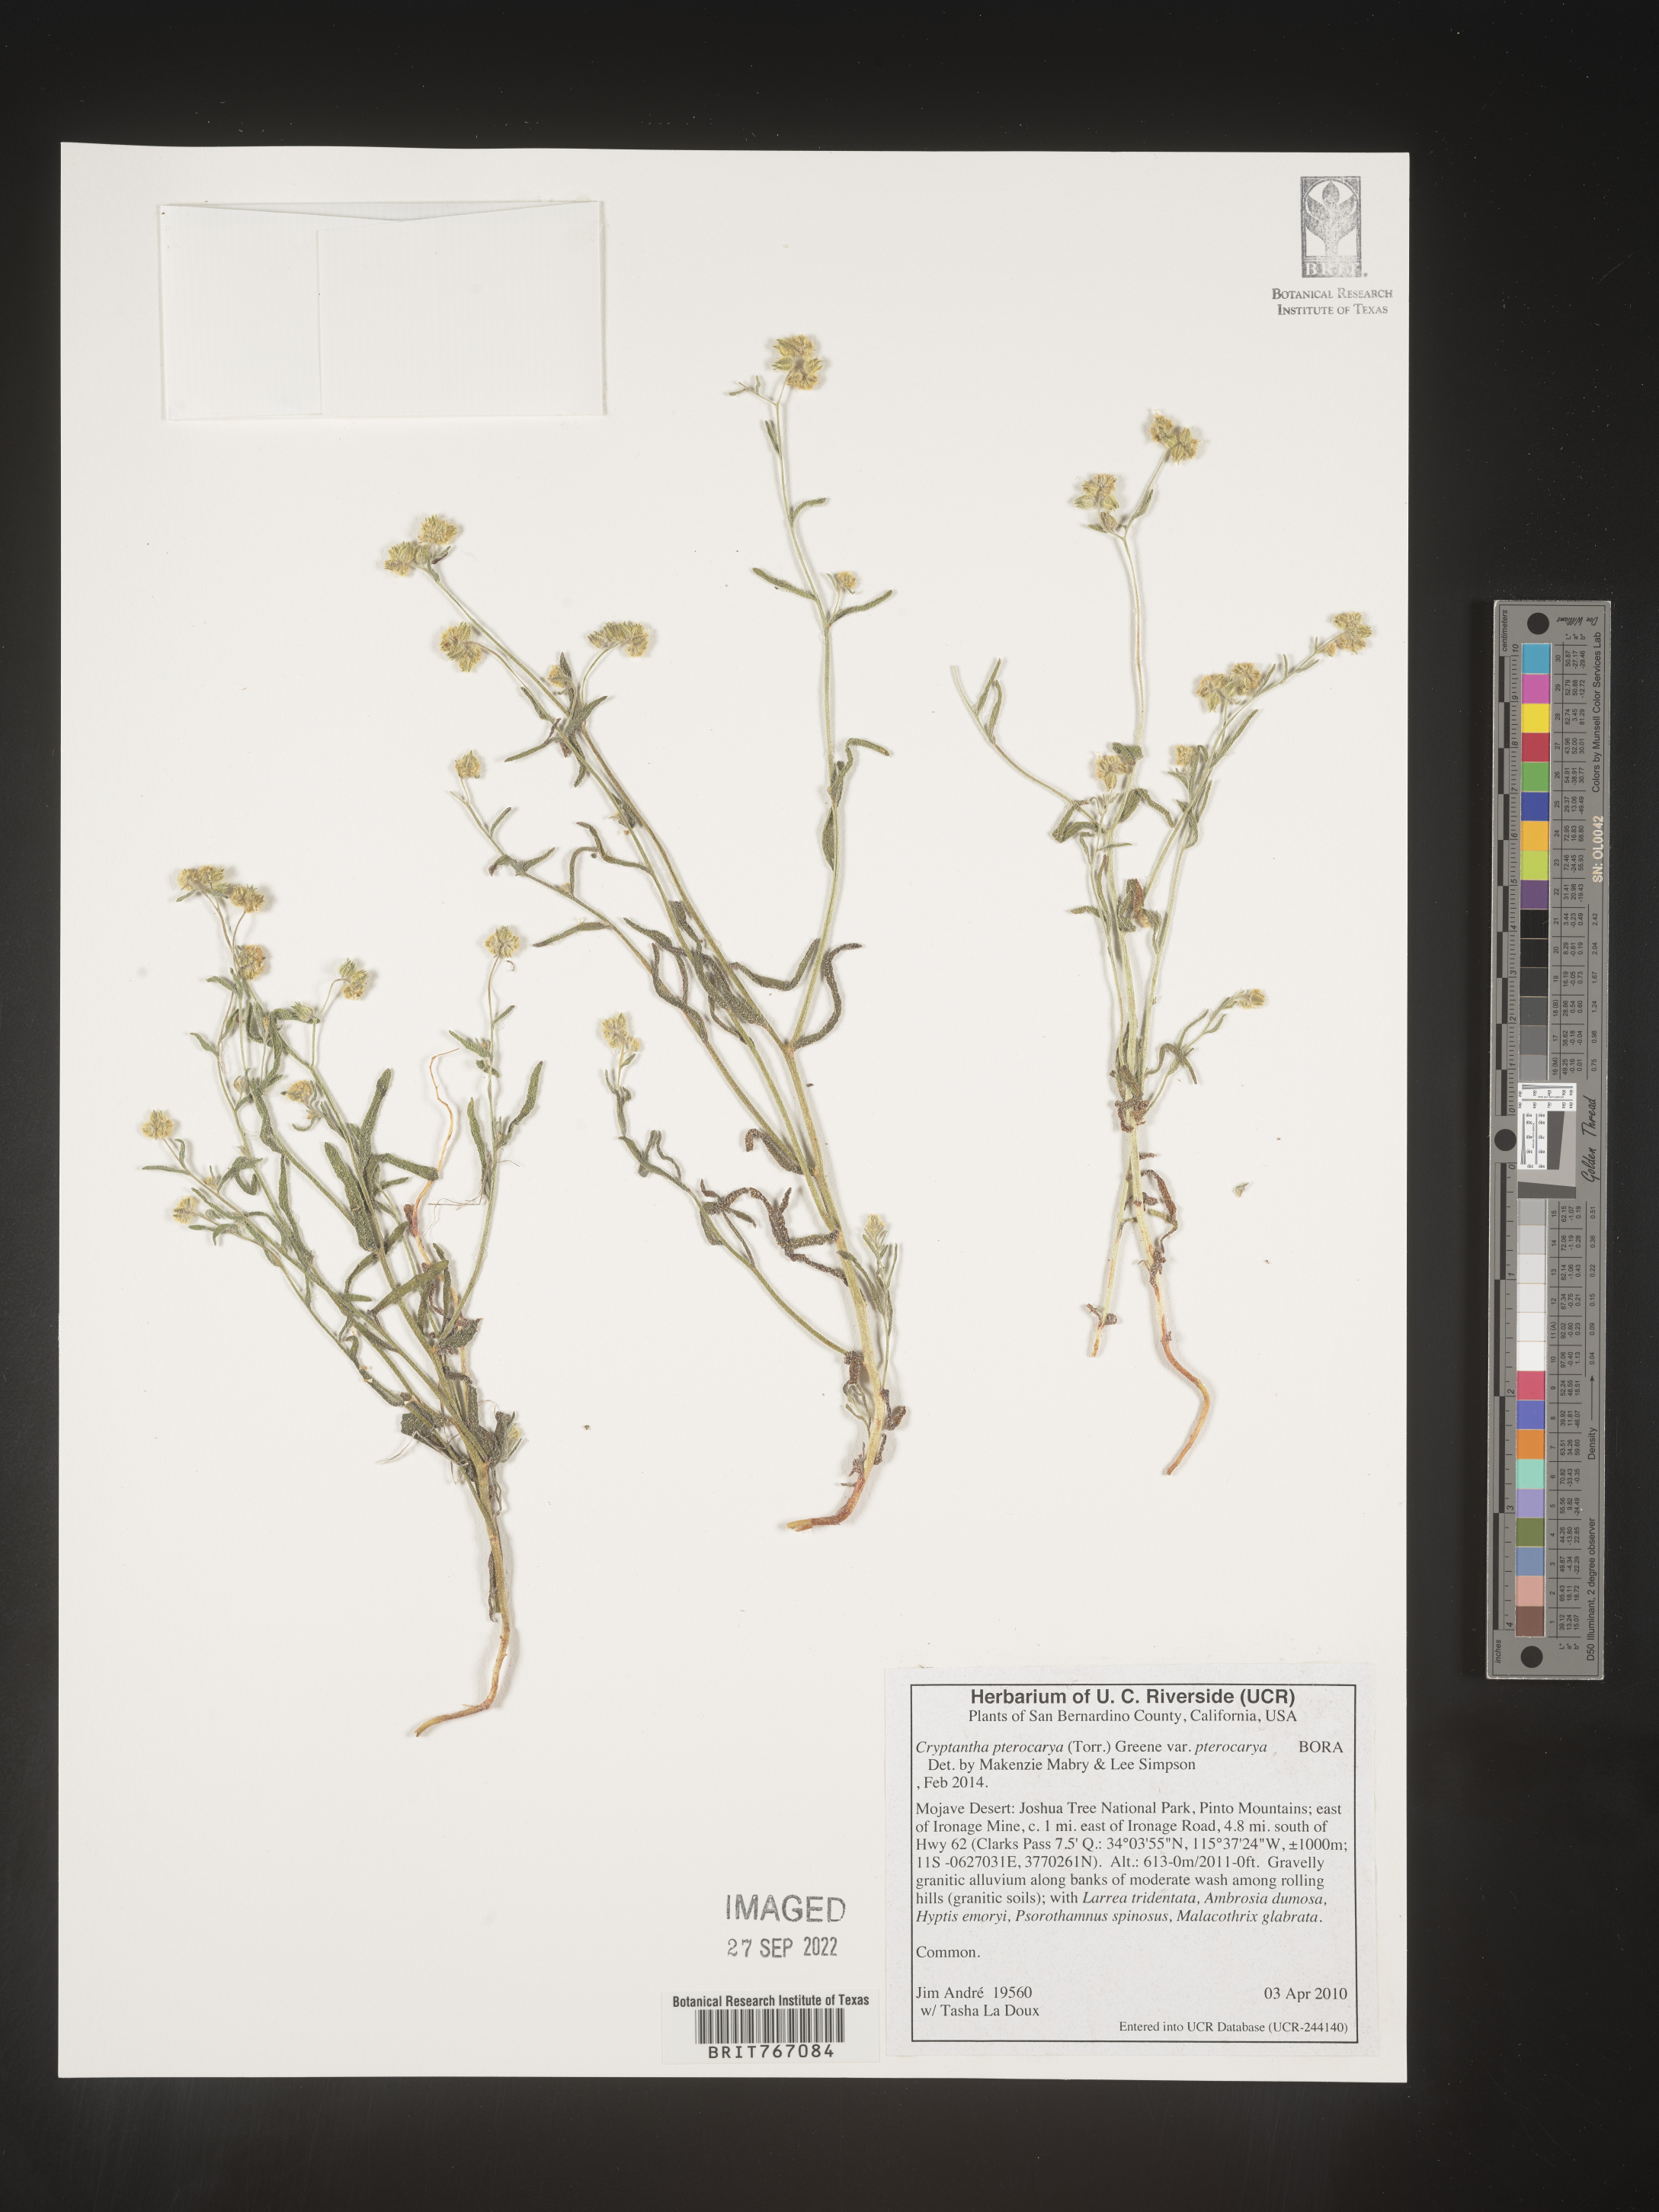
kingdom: Plantae
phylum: Tracheophyta
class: Magnoliopsida
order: Boraginales
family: Boraginaceae
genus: Cryptantha
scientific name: Cryptantha pterocarya
